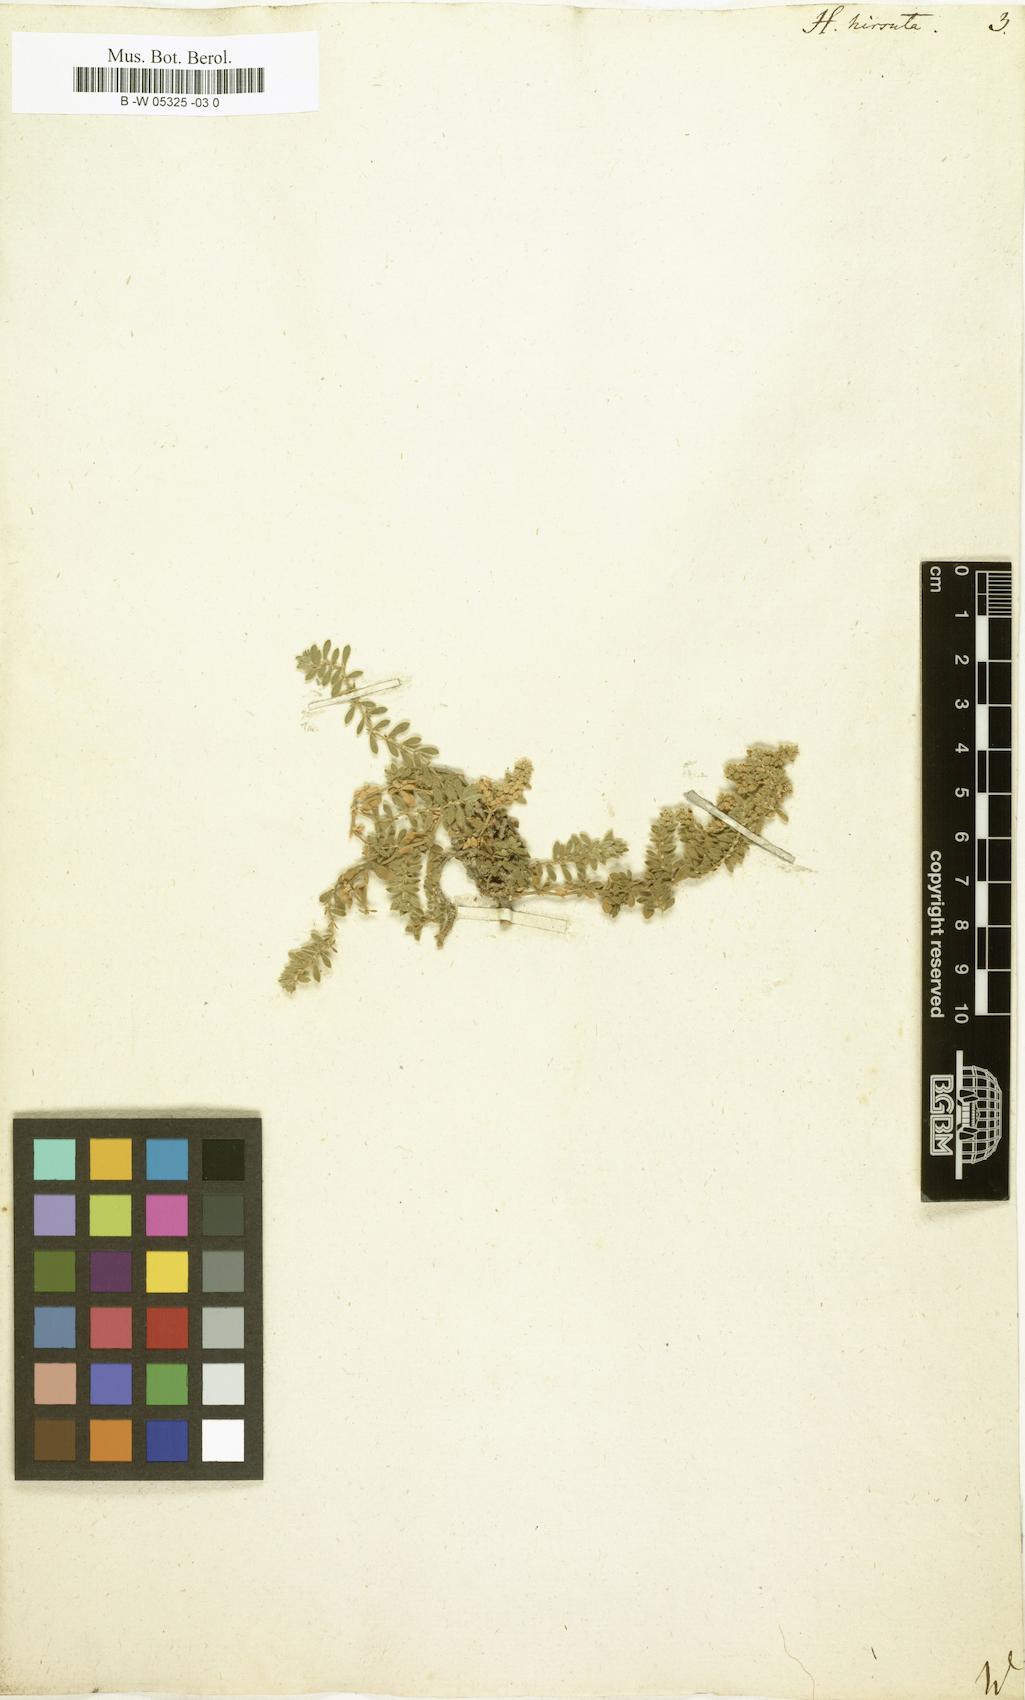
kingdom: Plantae
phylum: Tracheophyta
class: Magnoliopsida
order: Caryophyllales
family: Caryophyllaceae
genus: Herniaria
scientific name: Herniaria hirsuta
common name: Hairy rupturewort
